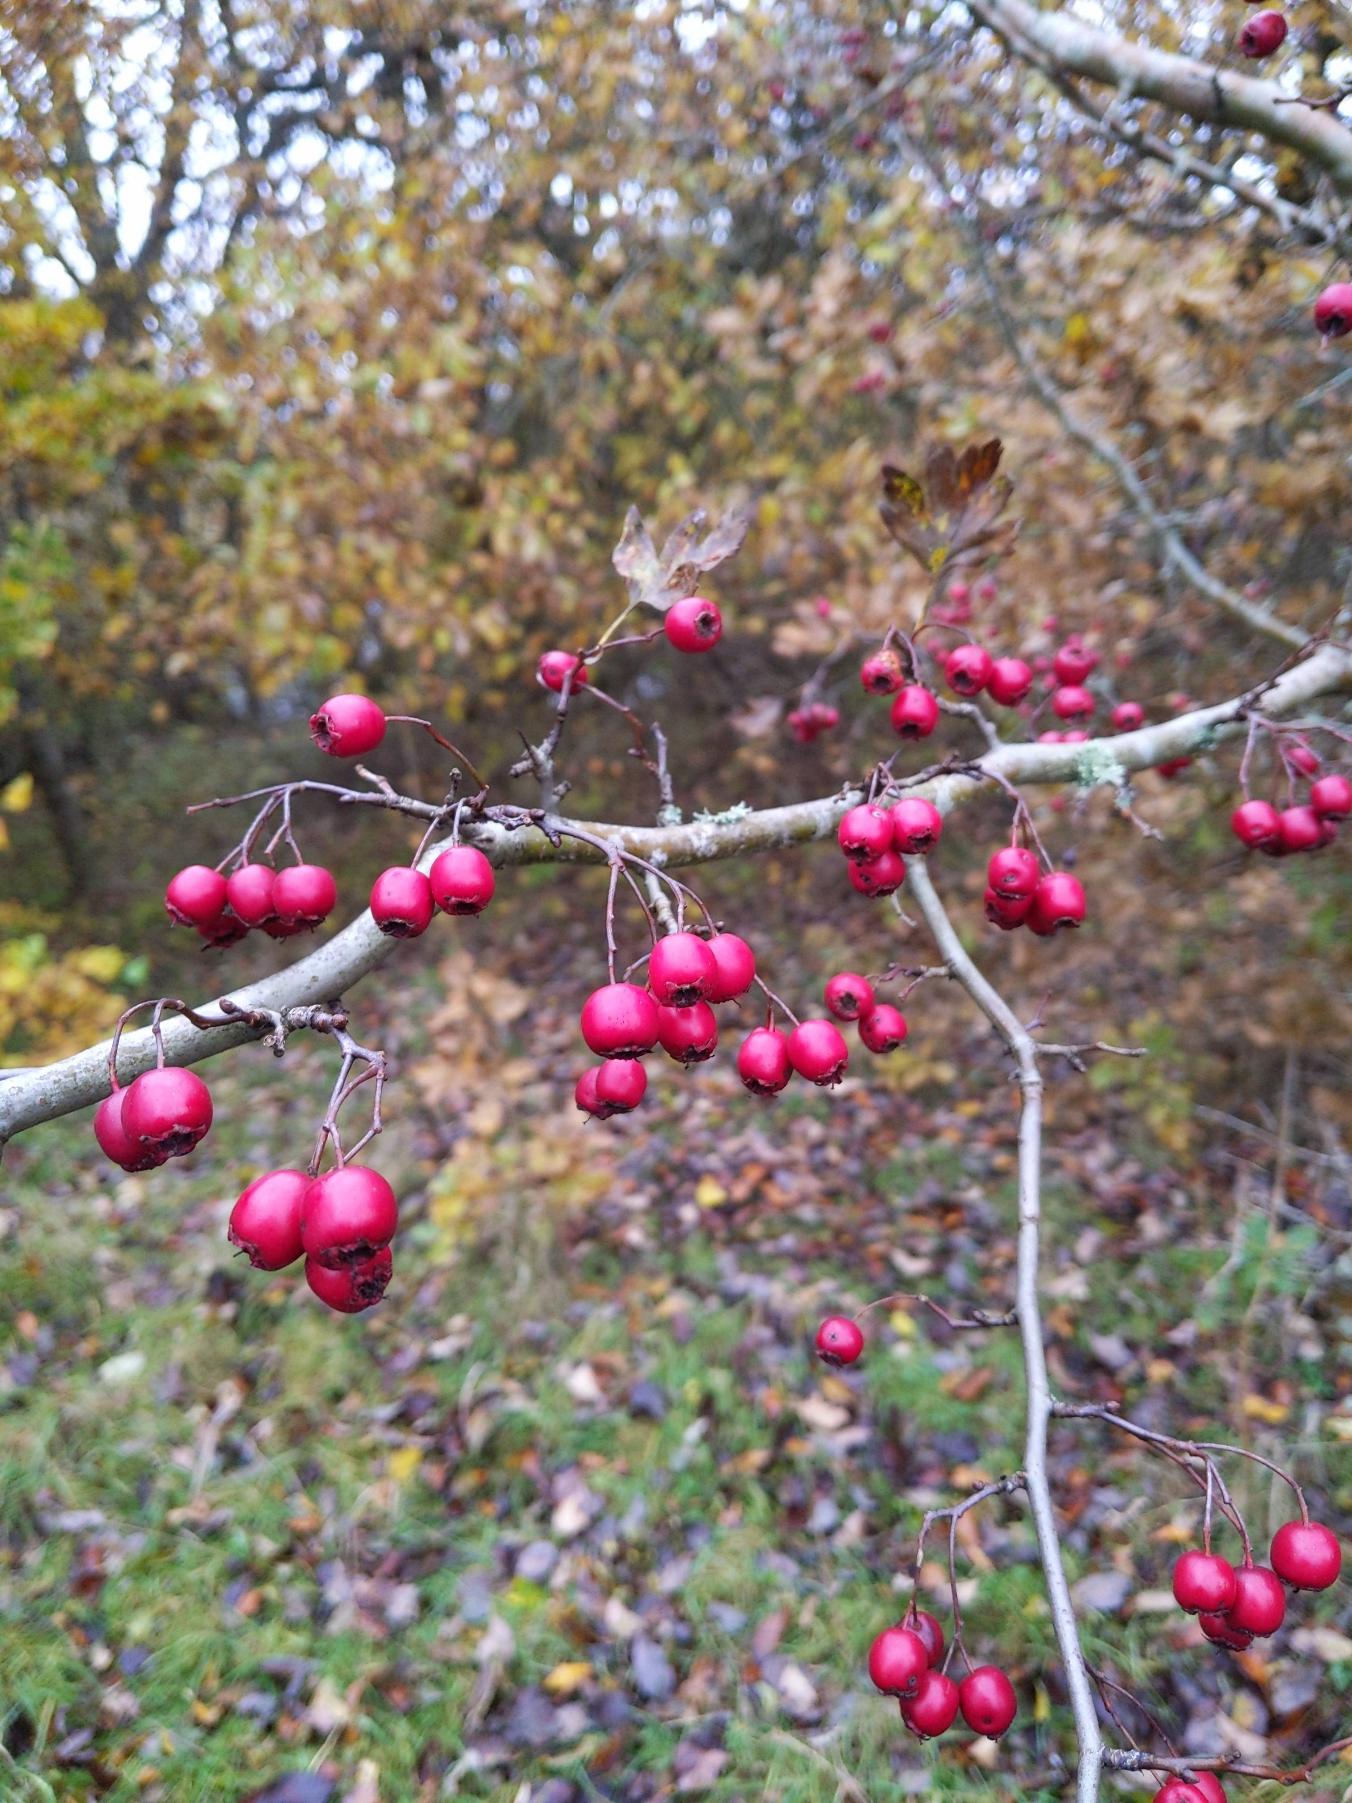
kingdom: Plantae
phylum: Tracheophyta
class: Magnoliopsida
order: Rosales
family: Rosaceae
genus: Crataegus
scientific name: Crataegus monogyna
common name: Engriflet hvidtjørn
